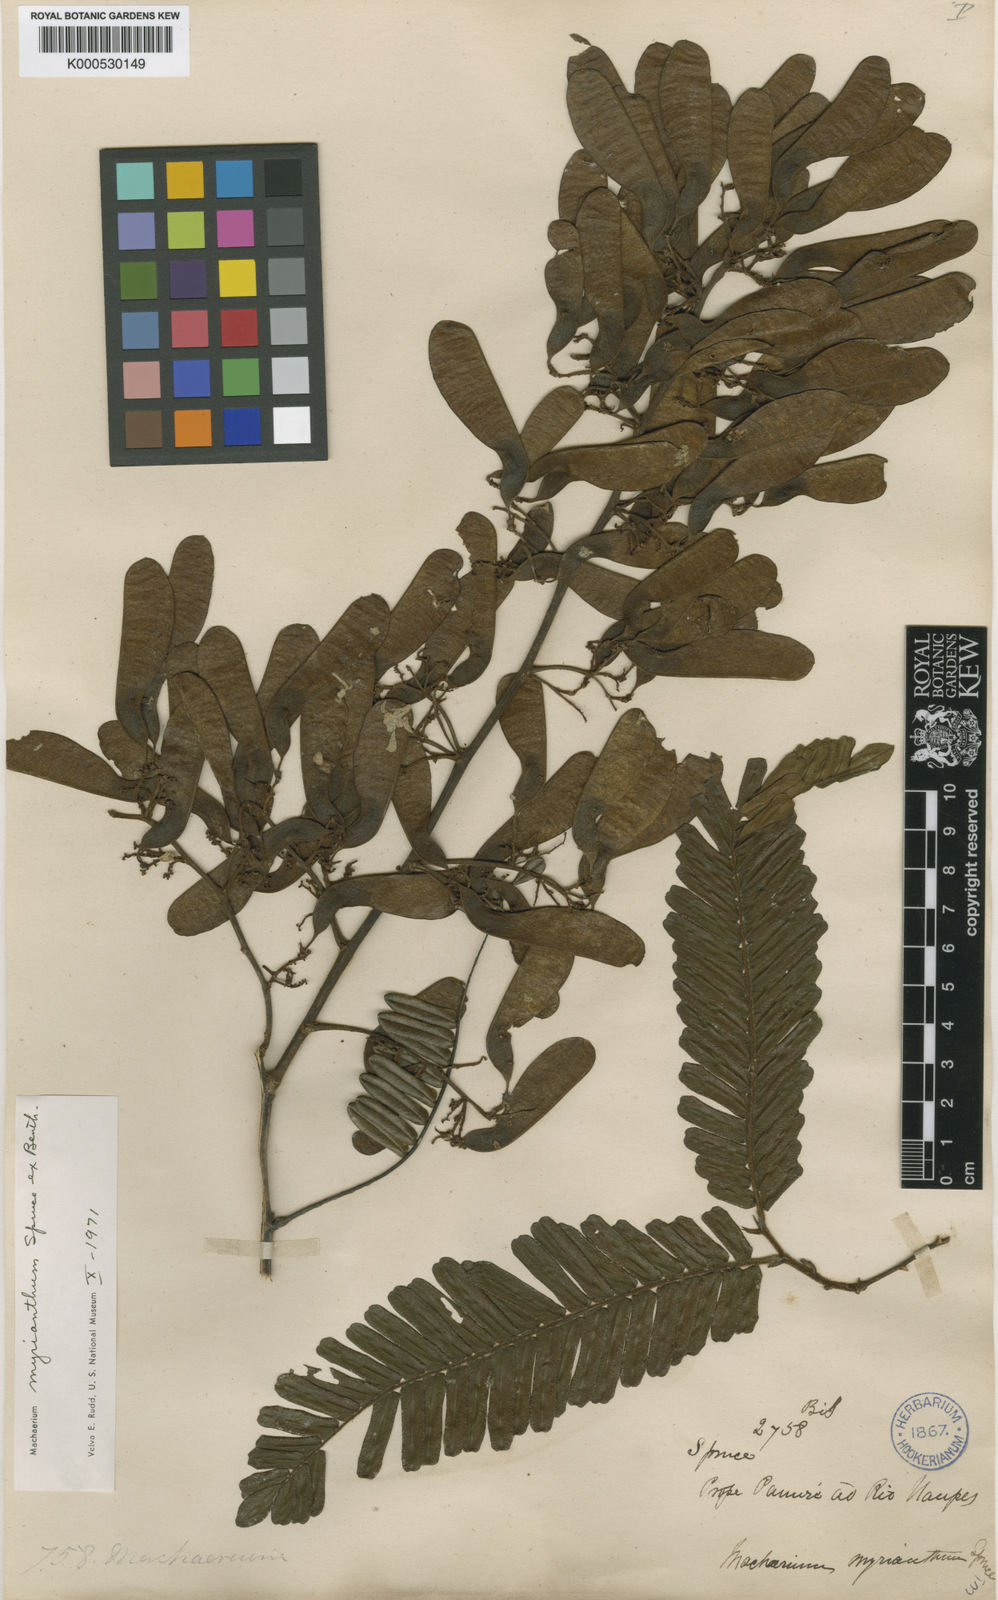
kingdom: Plantae
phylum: Tracheophyta
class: Magnoliopsida
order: Fabales
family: Fabaceae
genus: Machaerium
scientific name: Machaerium myrianthum
